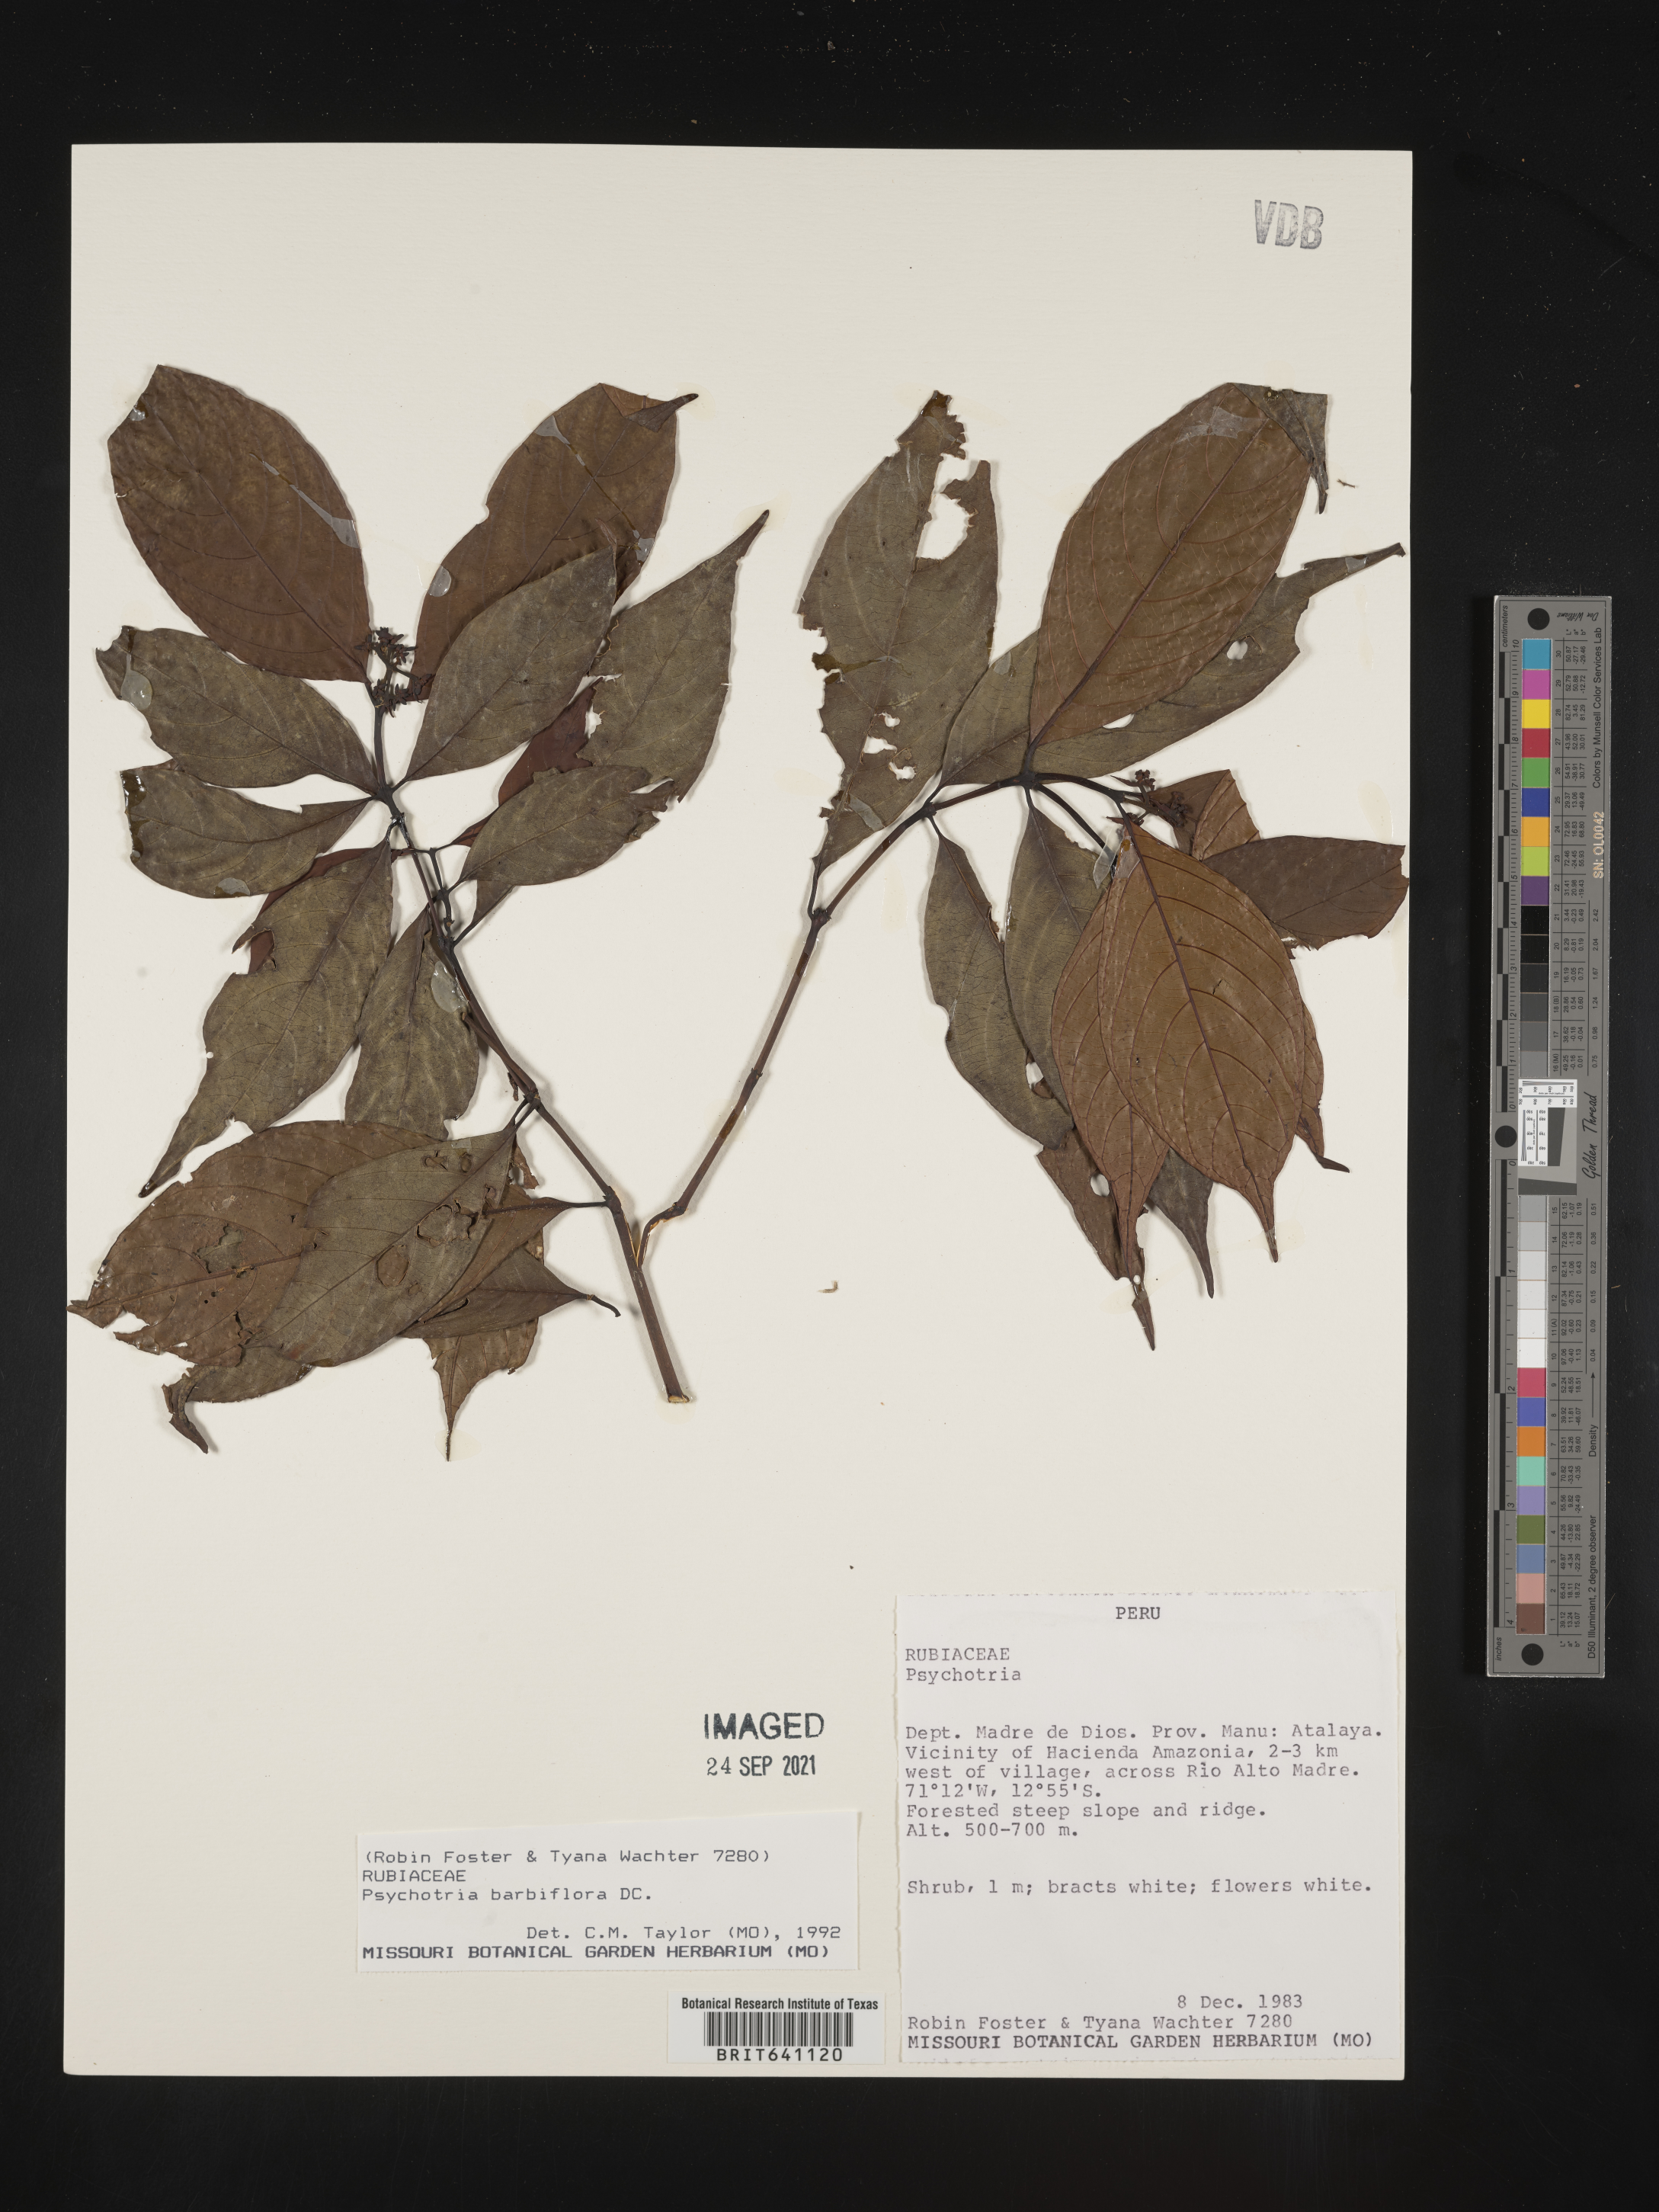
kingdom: Plantae
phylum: Tracheophyta
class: Magnoliopsida
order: Gentianales
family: Rubiaceae
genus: Psychotria
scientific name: Psychotria
